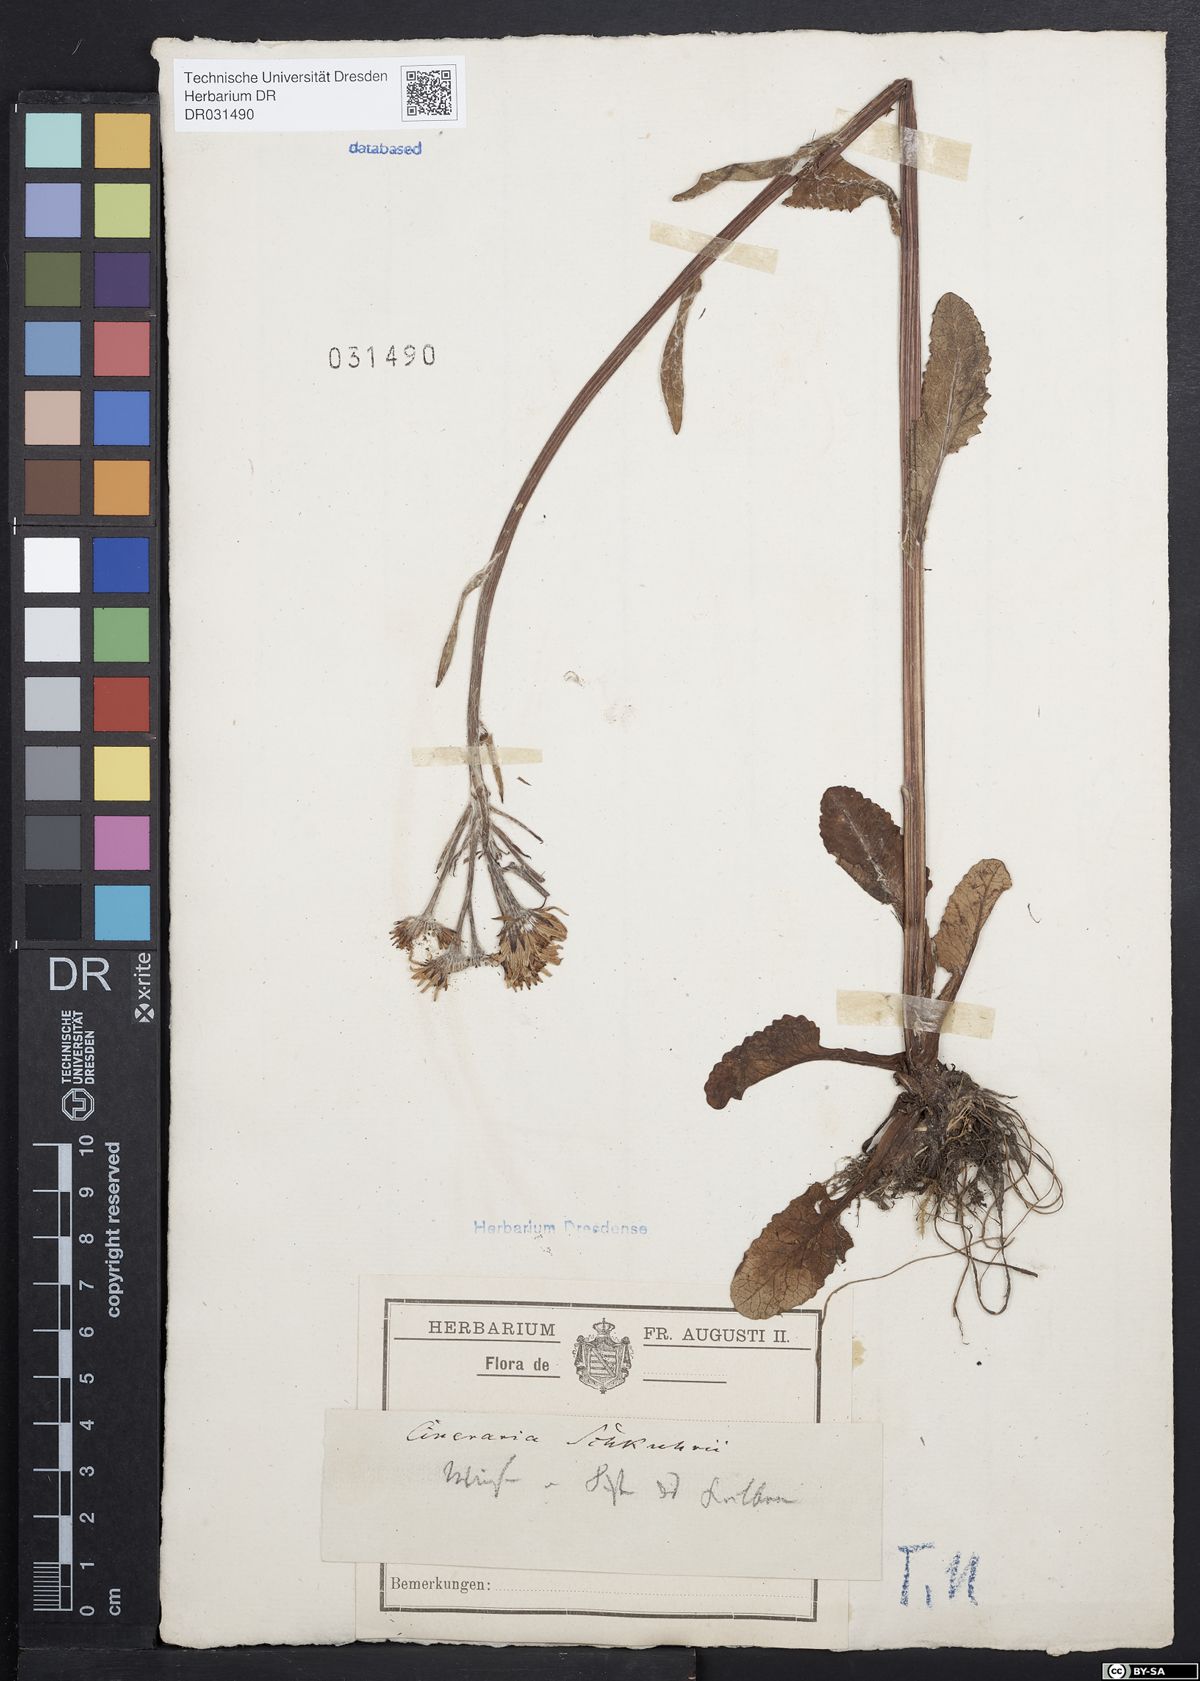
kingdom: Plantae
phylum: Tracheophyta
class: Magnoliopsida
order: Asterales
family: Asteraceae
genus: Tephroseris
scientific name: Tephroseris crispa
